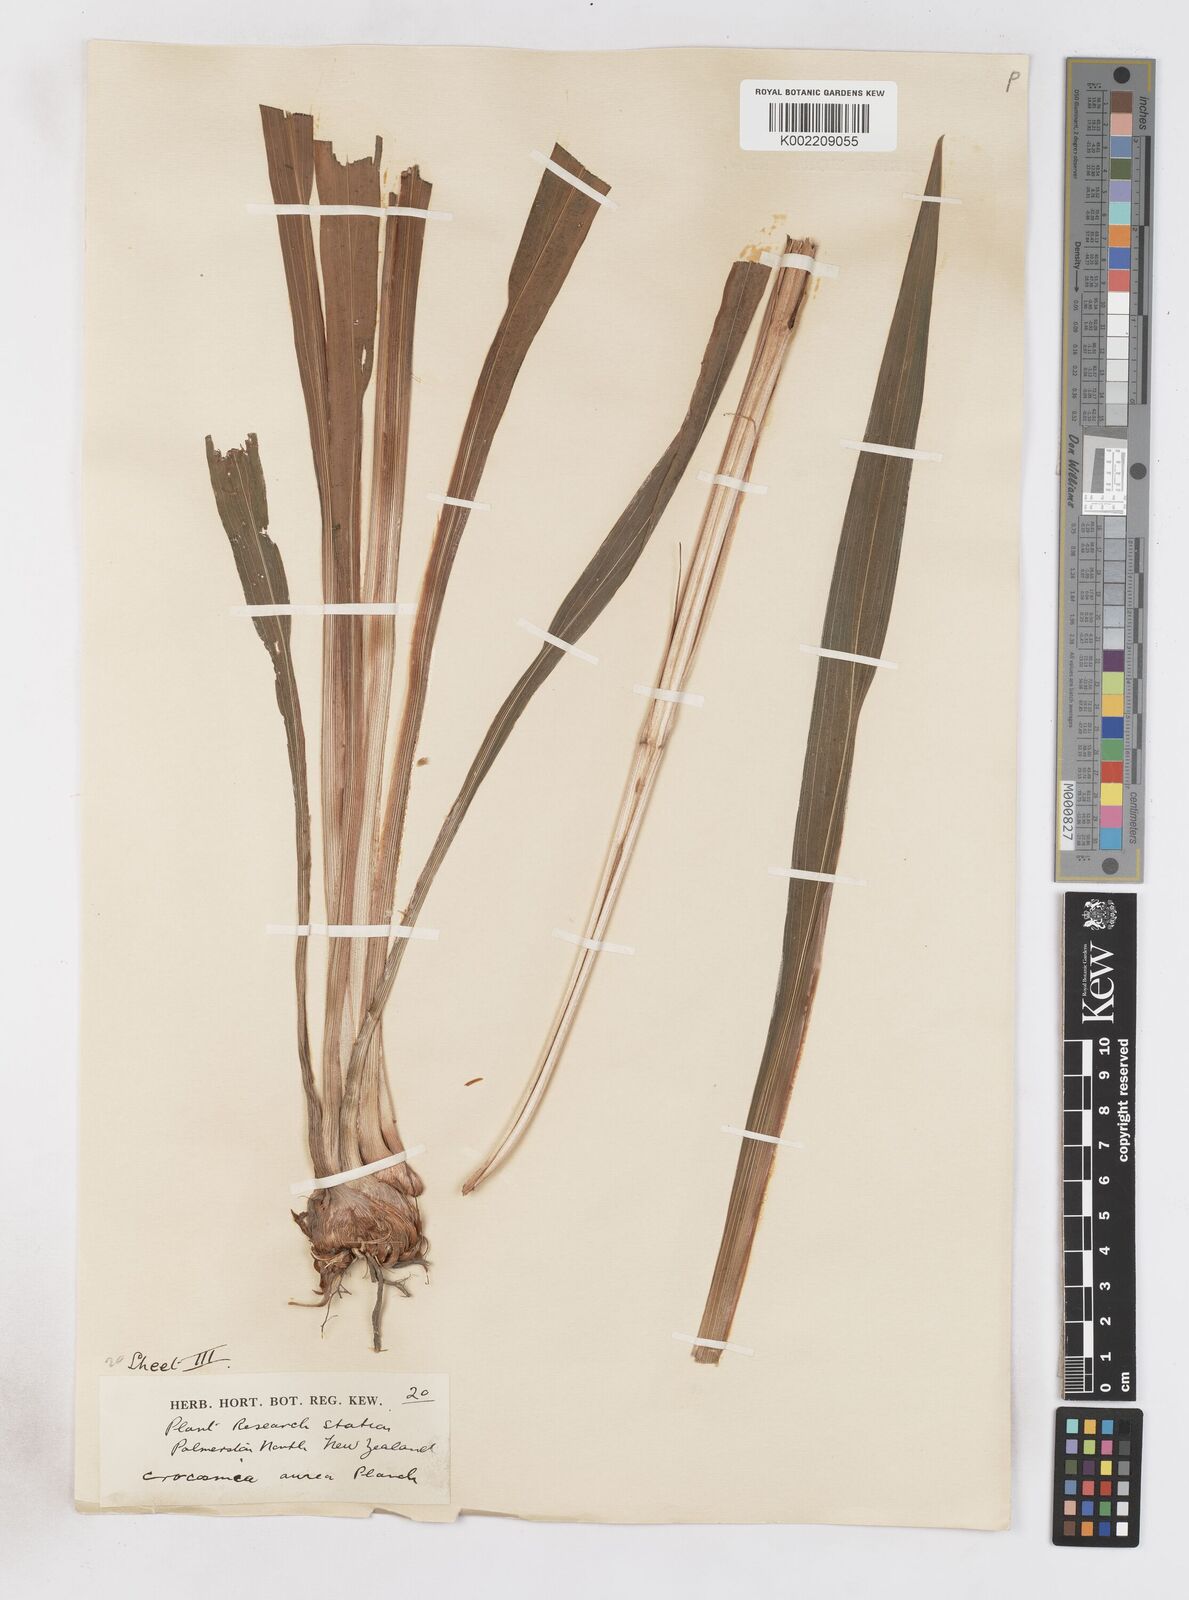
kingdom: Plantae
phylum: Tracheophyta
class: Liliopsida
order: Asparagales
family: Iridaceae
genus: Crocosmia
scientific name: Crocosmia aurea
